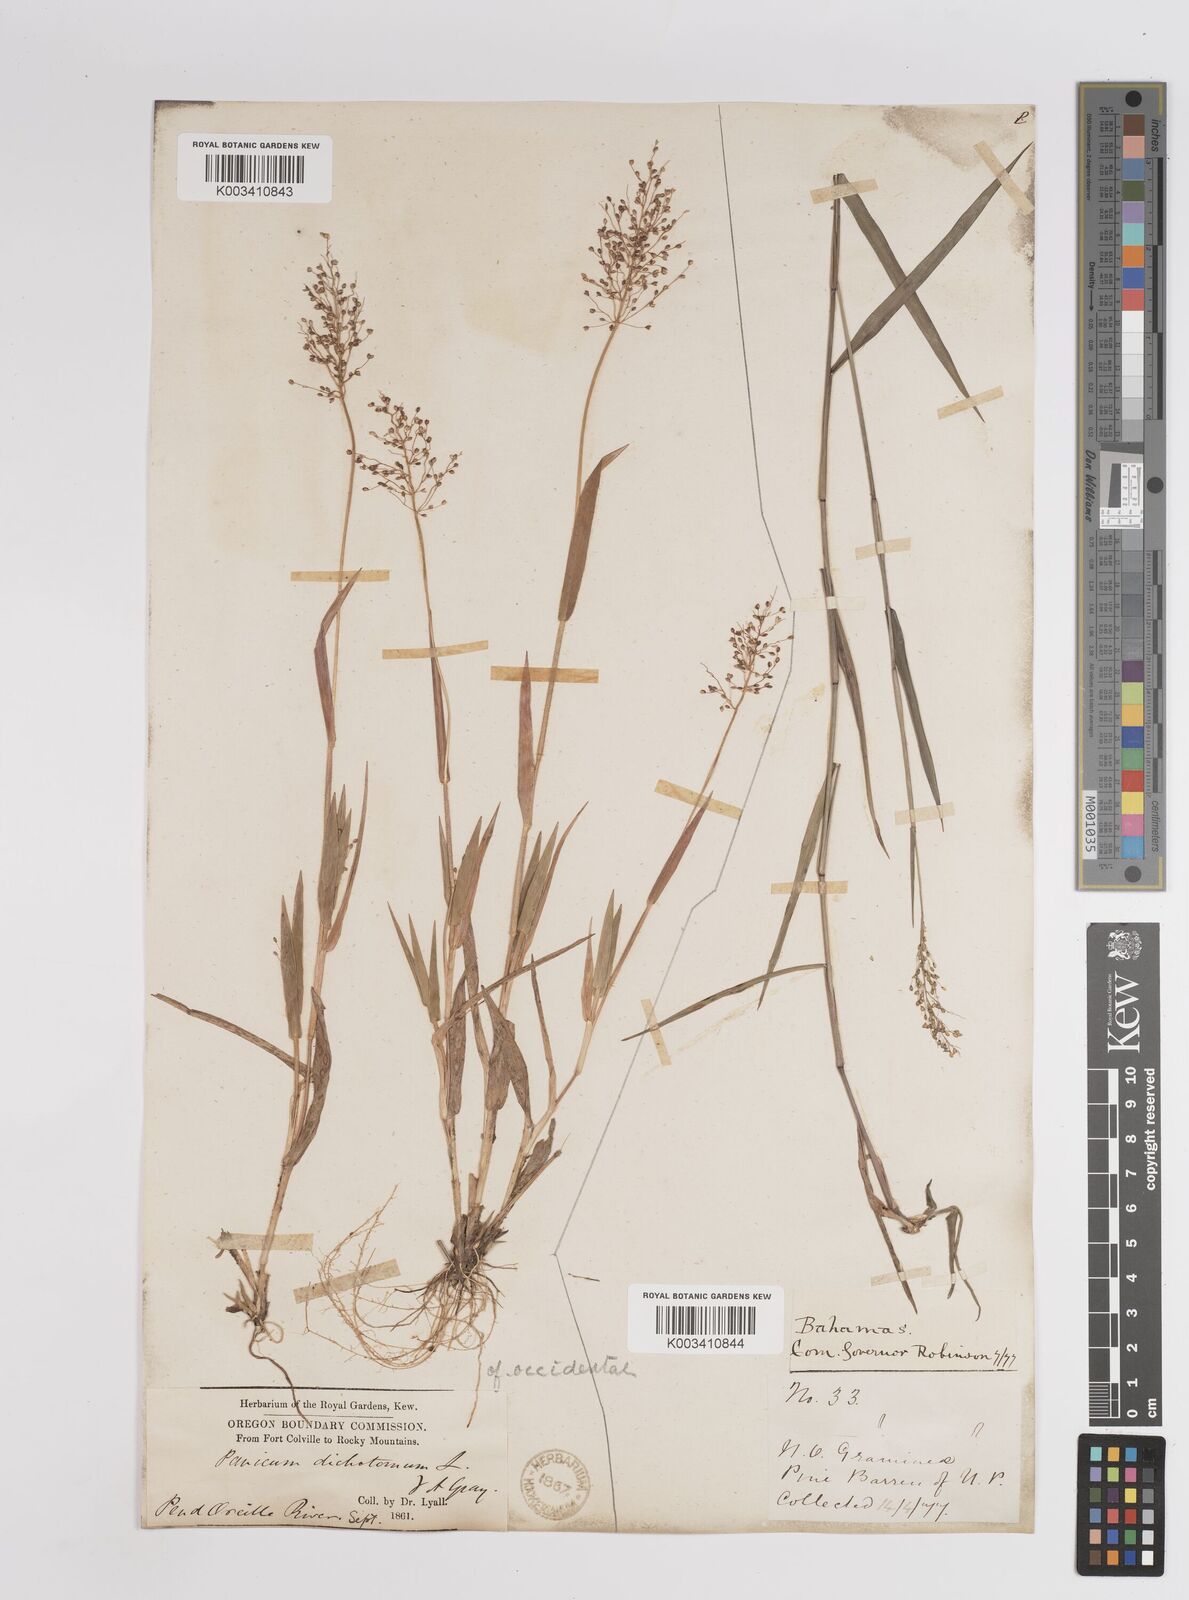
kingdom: Plantae
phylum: Tracheophyta
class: Liliopsida
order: Poales
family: Poaceae
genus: Dichanthelium
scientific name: Dichanthelium implicatum
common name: Slender-stemmed panicgrass
